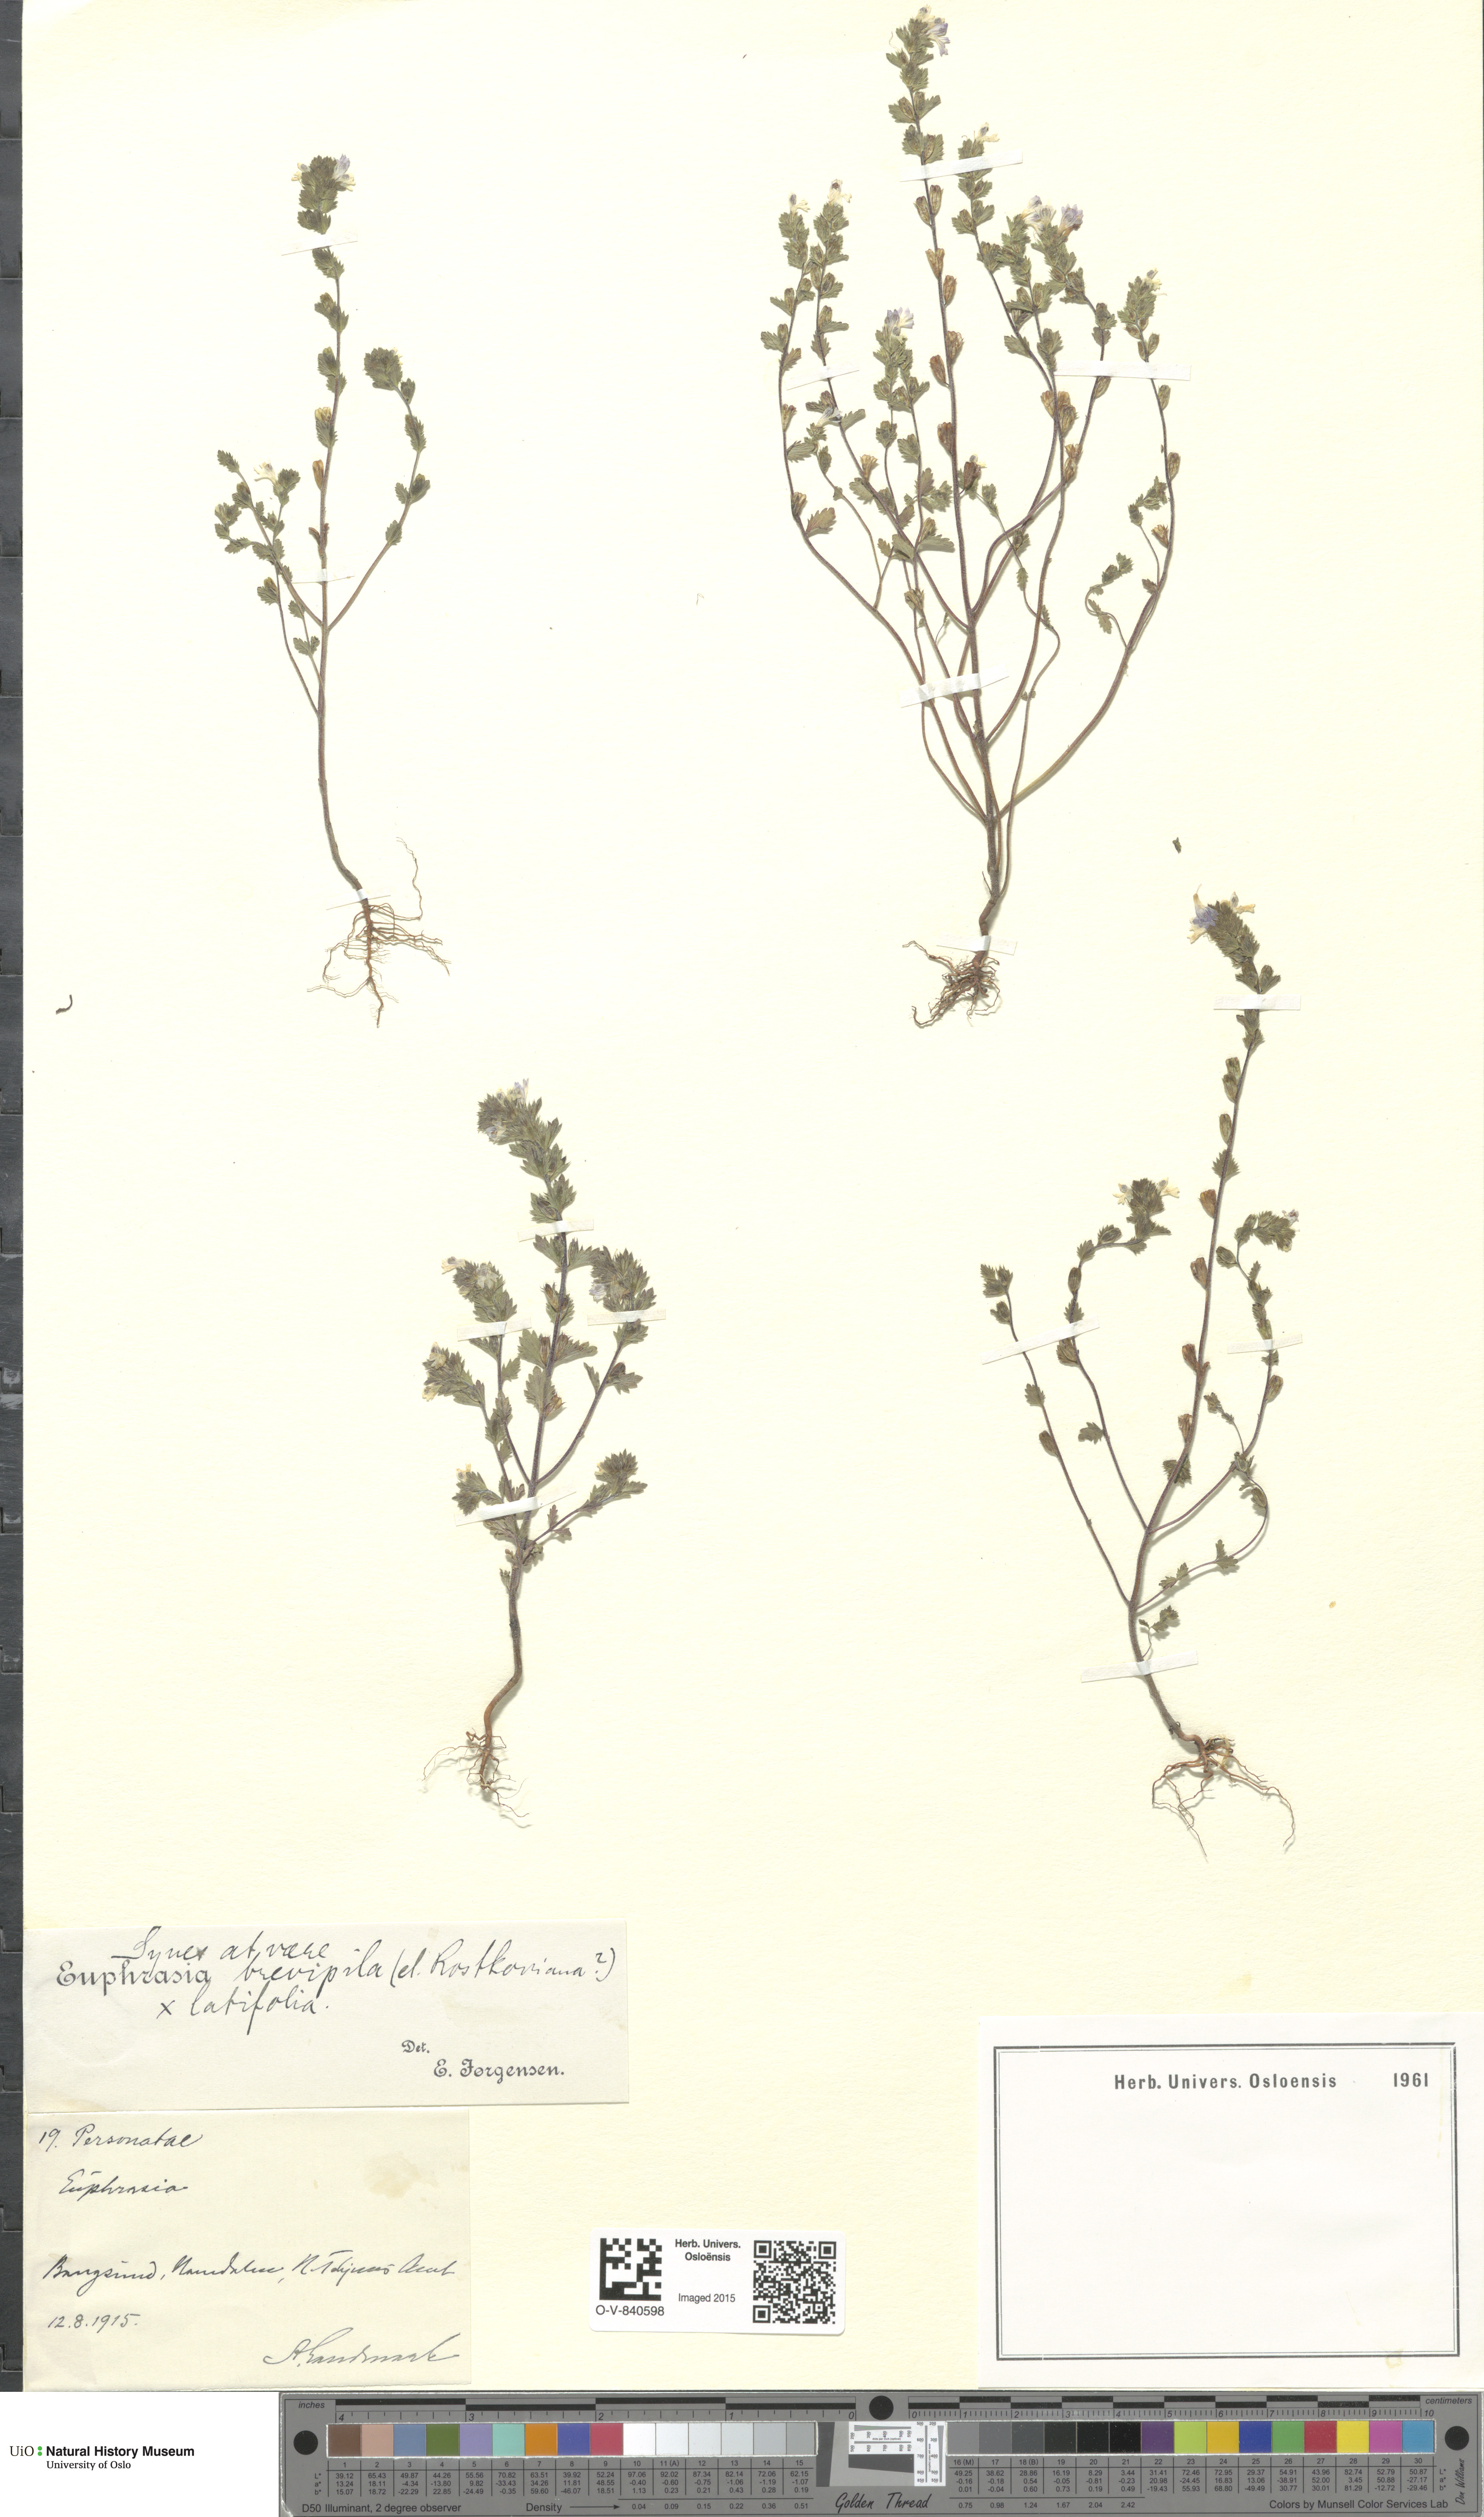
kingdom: Plantae
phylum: Tracheophyta
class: Magnoliopsida
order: Lamiales
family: Orobanchaceae
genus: Euphrasia
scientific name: Euphrasia
